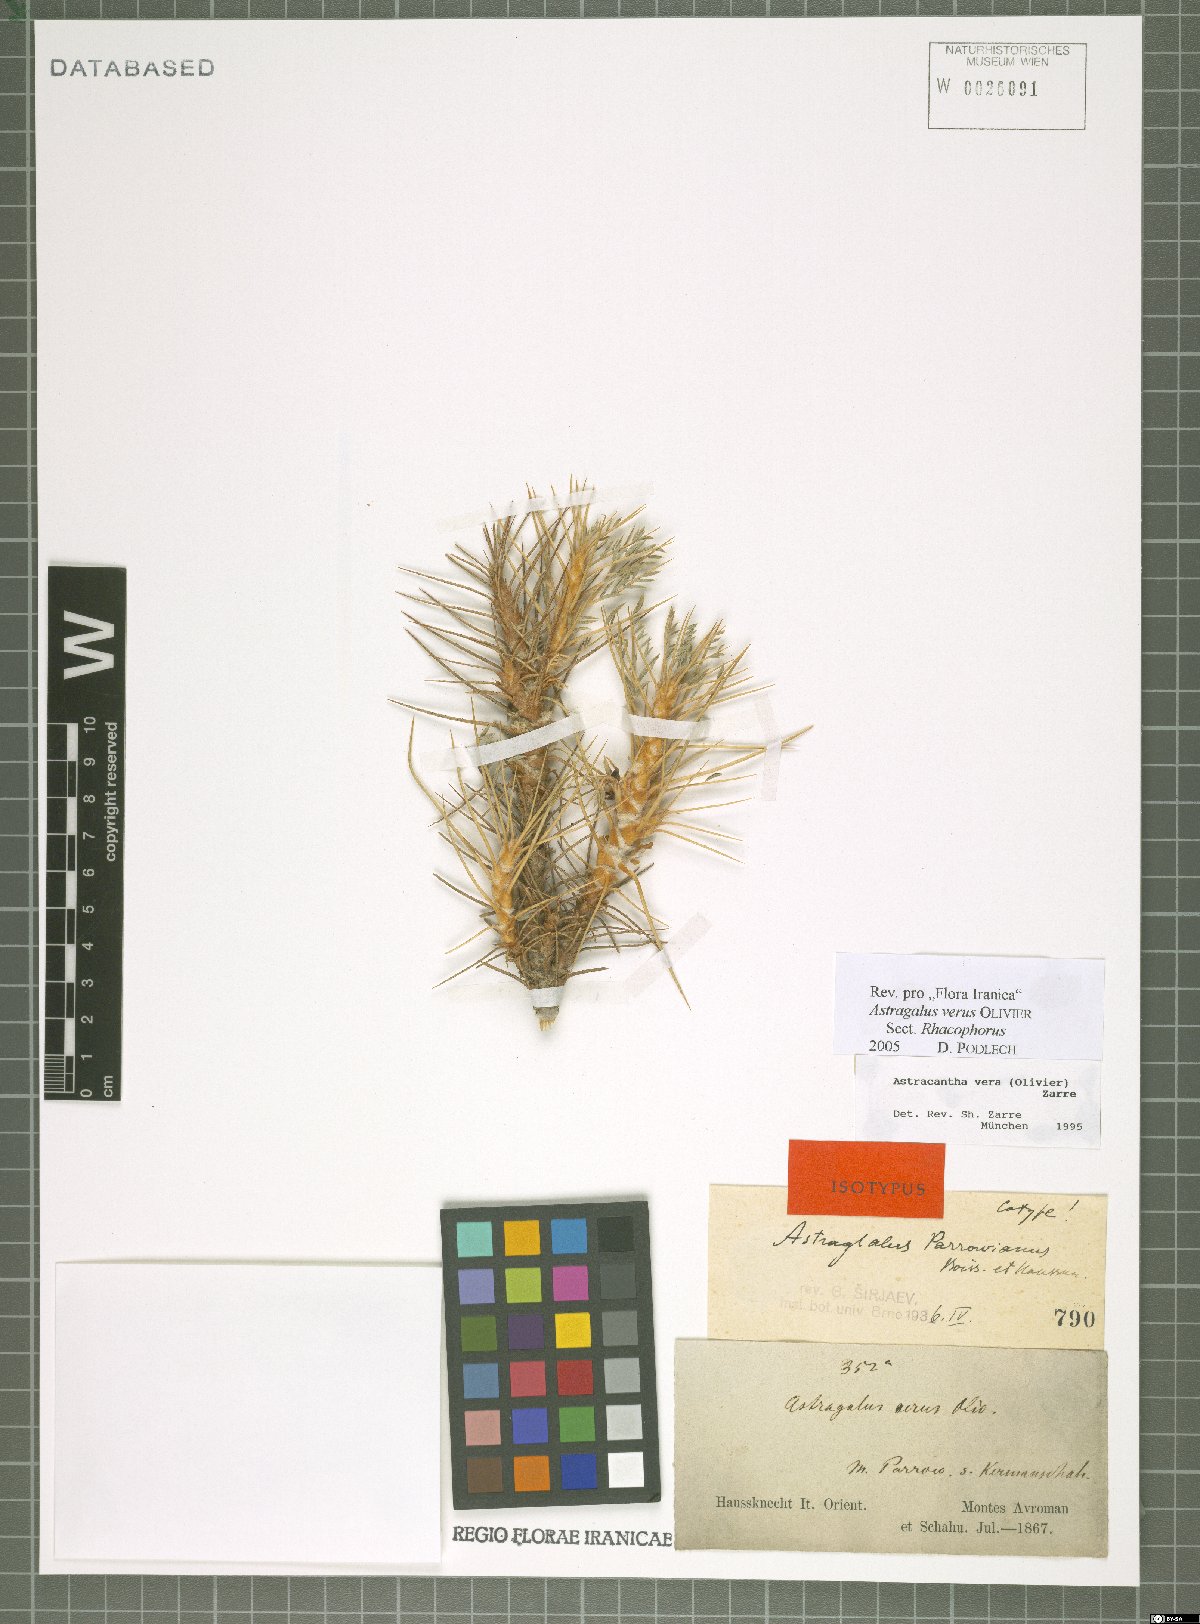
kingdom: Plantae
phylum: Tracheophyta
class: Magnoliopsida
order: Fabales
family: Fabaceae
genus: Astragalus
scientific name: Astragalus verus
